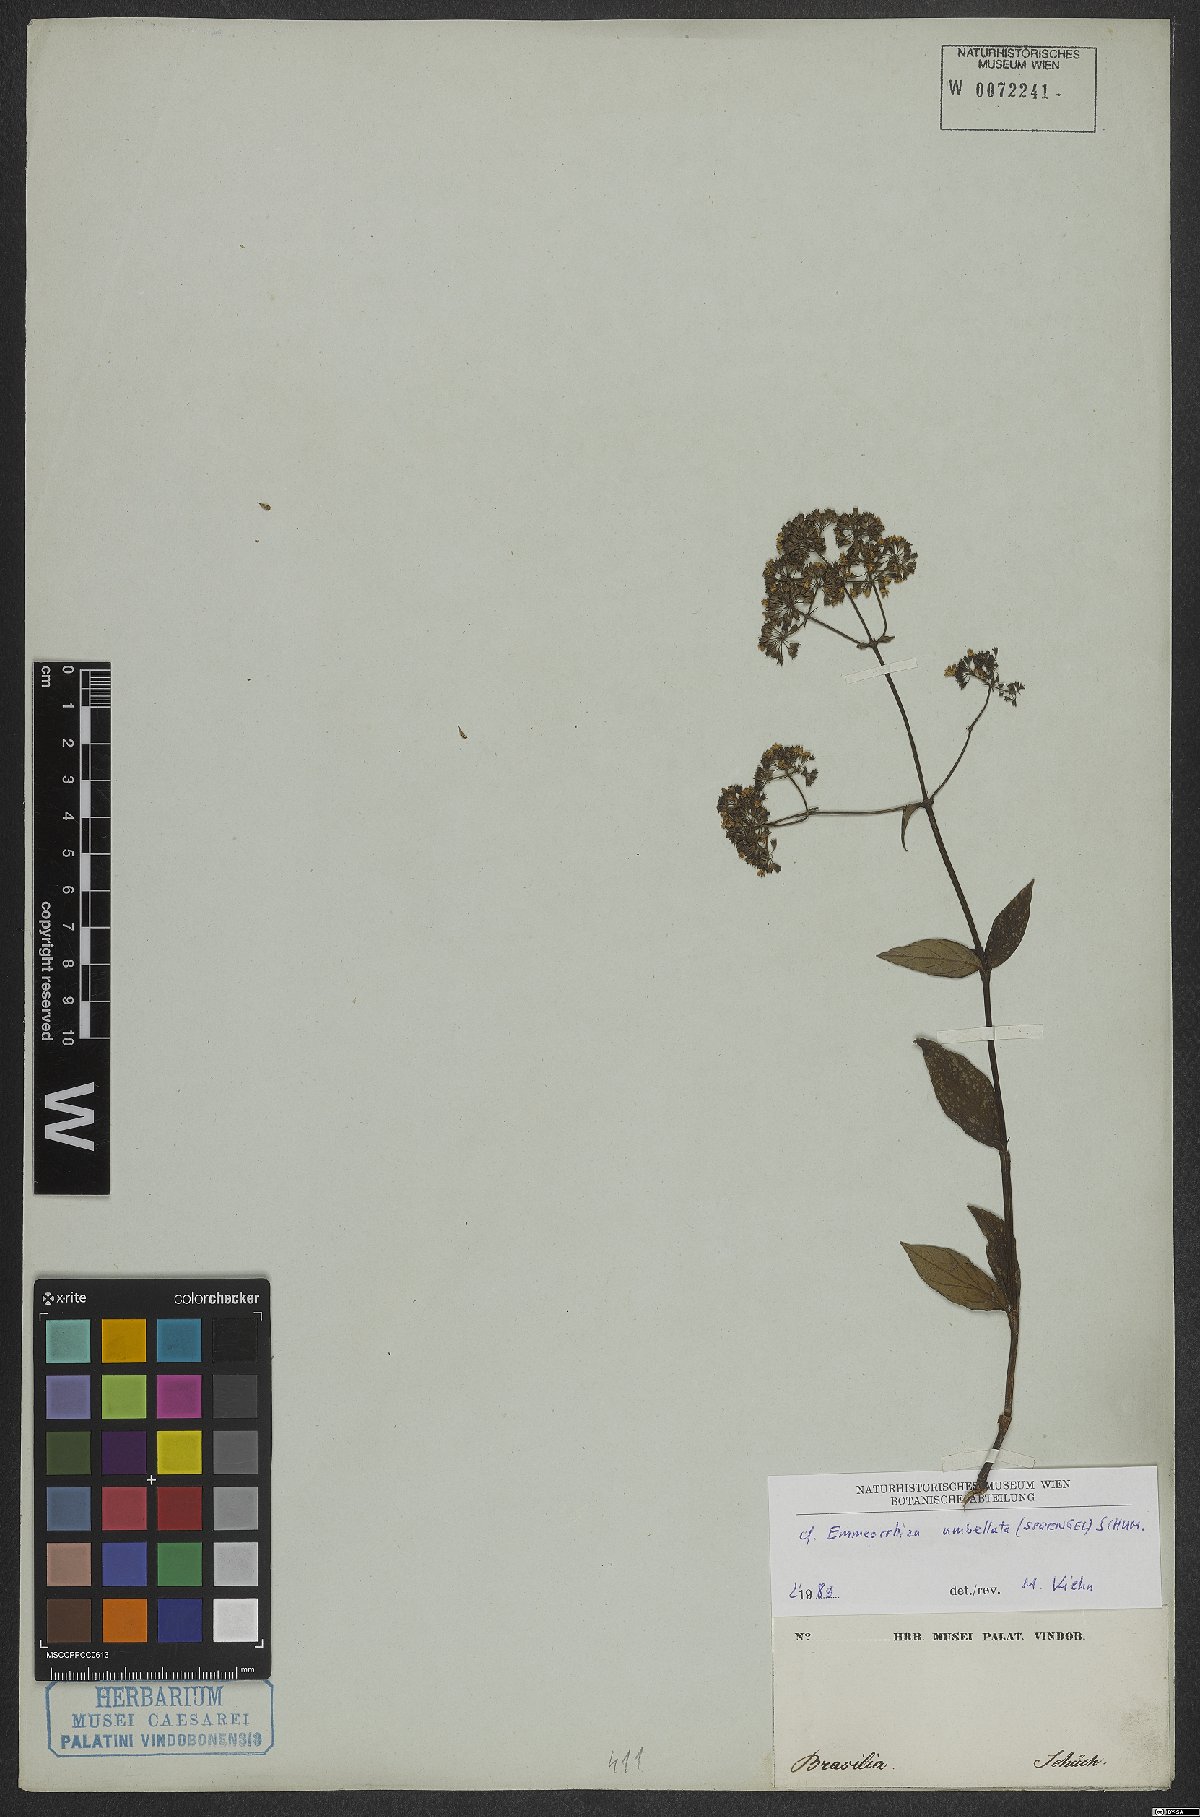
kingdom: Plantae
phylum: Tracheophyta
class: Magnoliopsida
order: Gentianales
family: Rubiaceae
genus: Emmeorhiza
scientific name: Emmeorhiza umbellata
